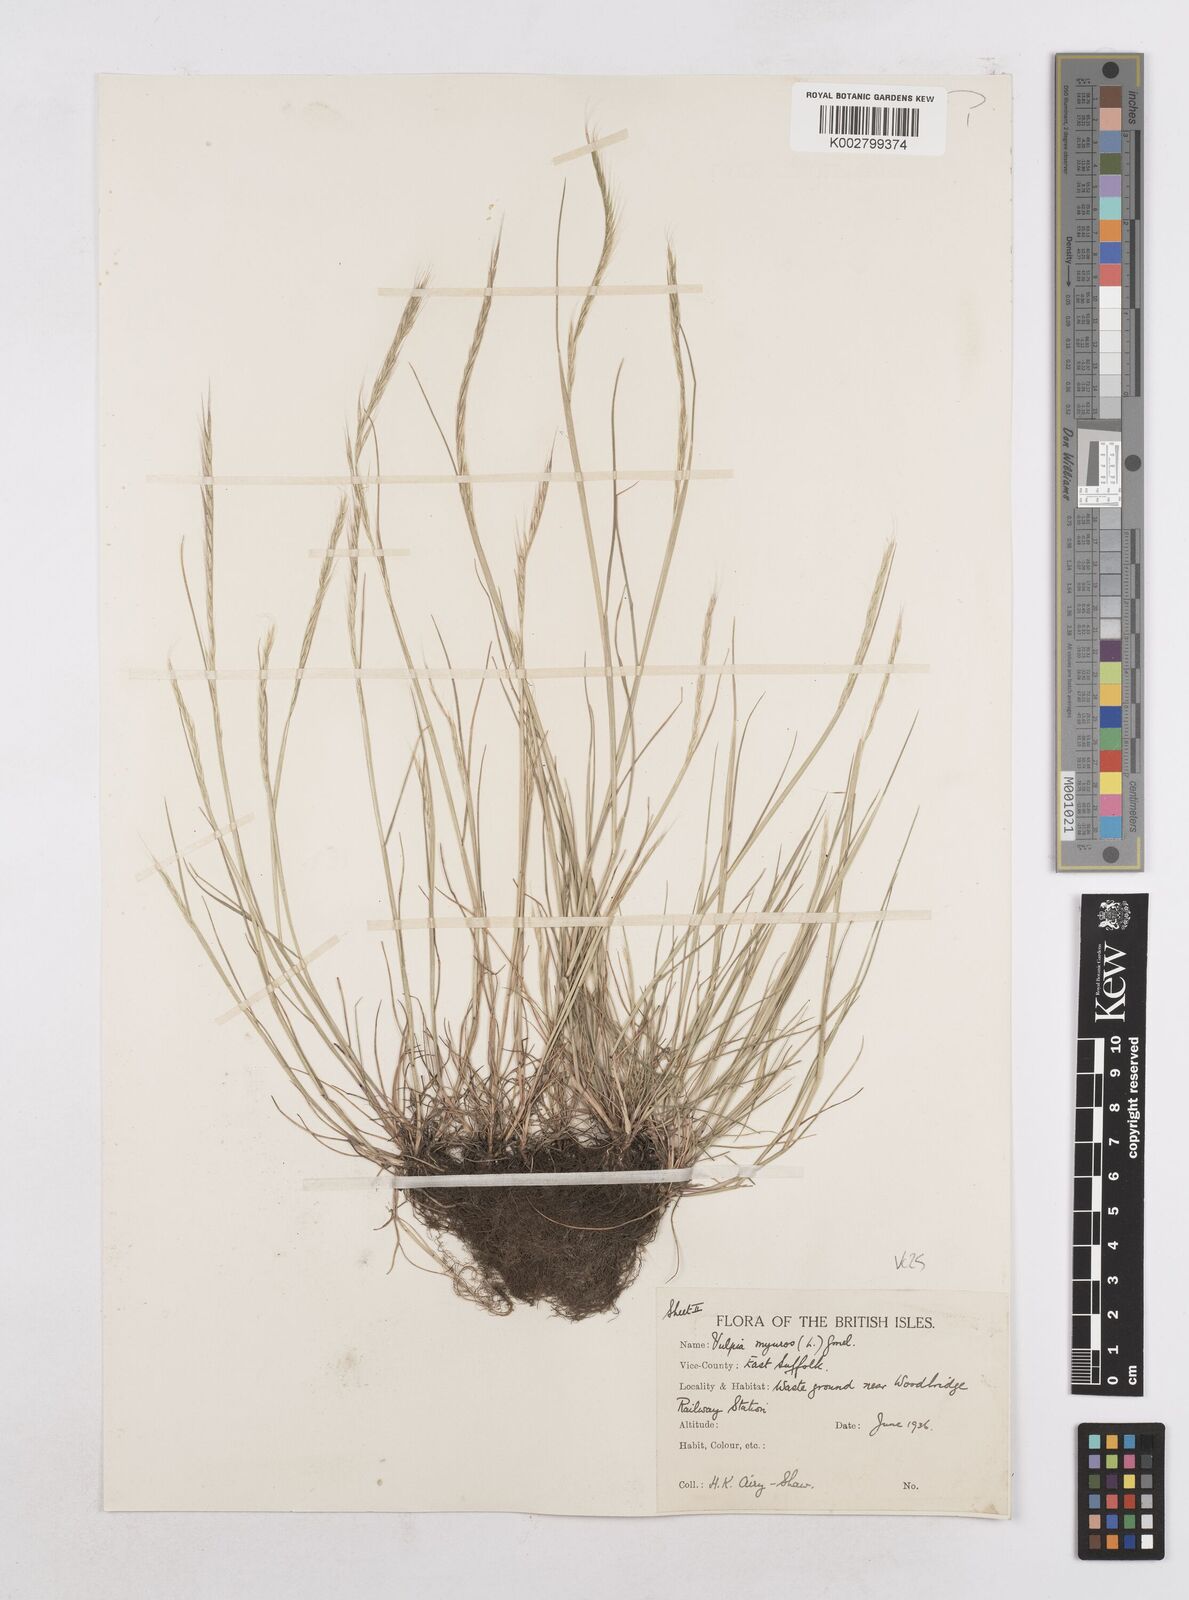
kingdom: Plantae
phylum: Tracheophyta
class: Liliopsida
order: Poales
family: Poaceae
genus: Festuca
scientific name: Festuca myuros
